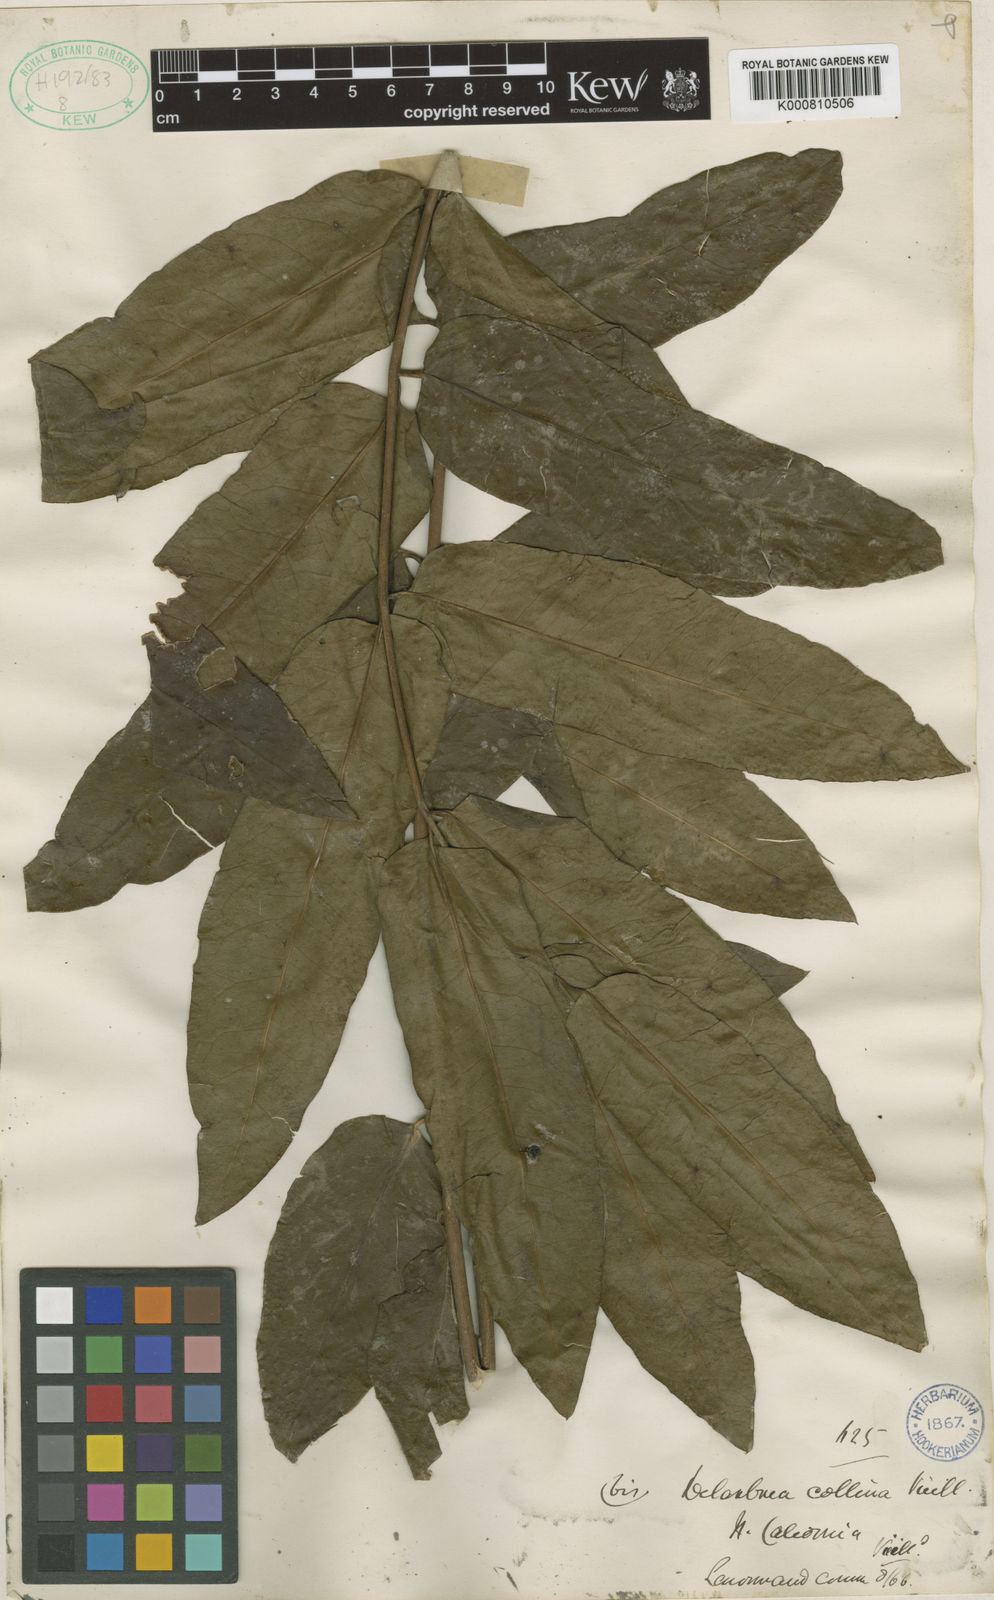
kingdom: Plantae
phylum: Tracheophyta
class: Magnoliopsida
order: Apiales
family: Myodocarpaceae
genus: Delarbrea
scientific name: Delarbrea collina
